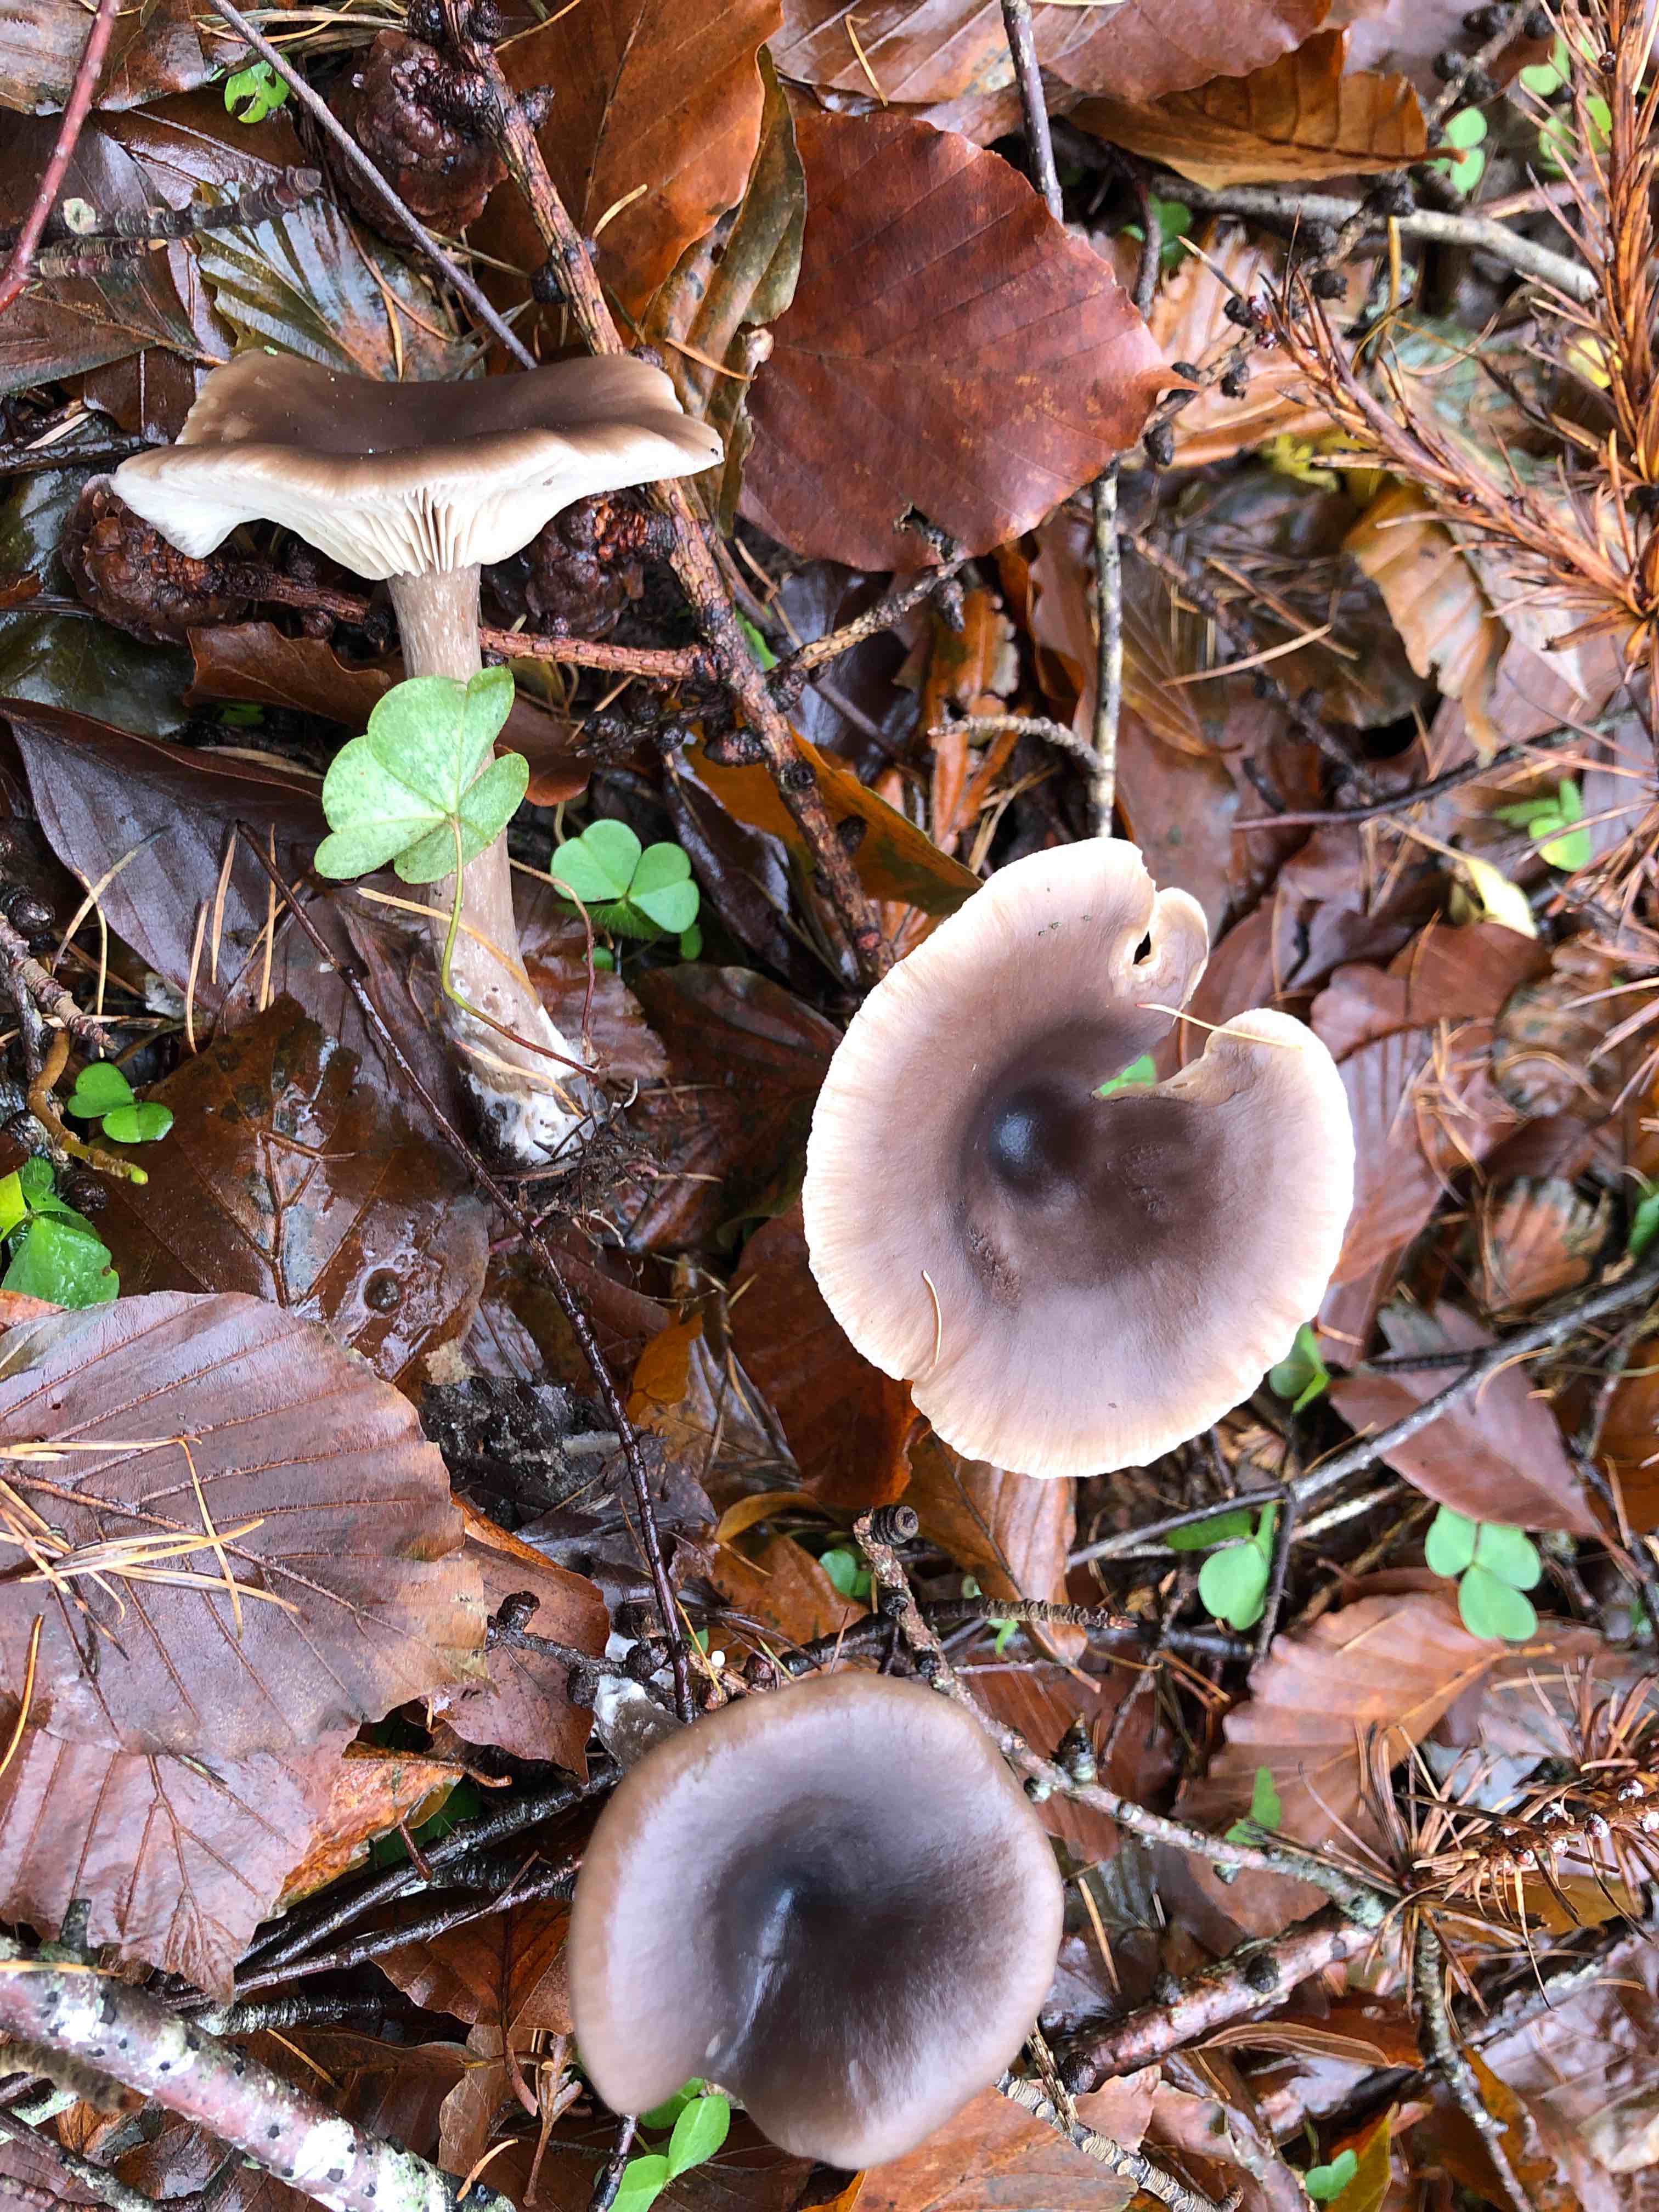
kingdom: Fungi
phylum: Basidiomycota
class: Agaricomycetes
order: Agaricales
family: Pseudoclitocybaceae
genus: Pseudoclitocybe
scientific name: Pseudoclitocybe cyathiformis
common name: almindelig bægertragthat
